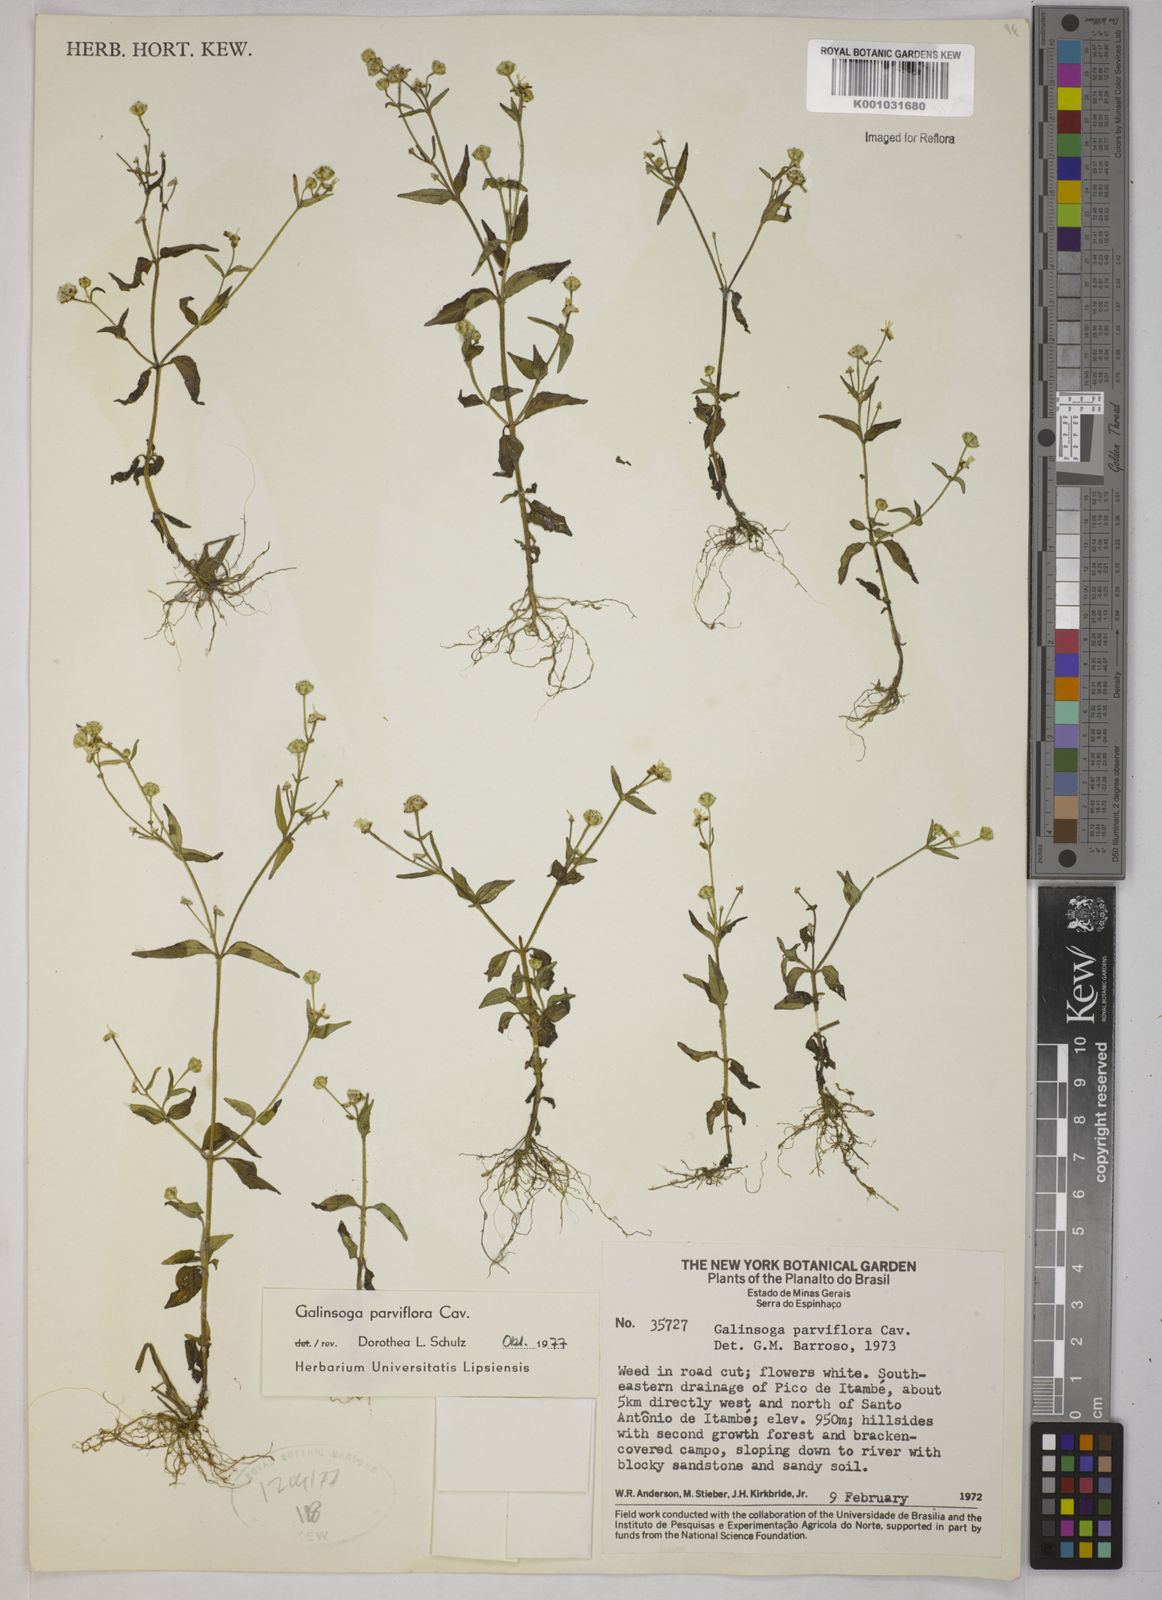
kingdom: Plantae
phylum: Tracheophyta
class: Magnoliopsida
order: Asterales
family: Asteraceae
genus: Galinsoga
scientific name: Galinsoga parviflora
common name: Gallant soldier
